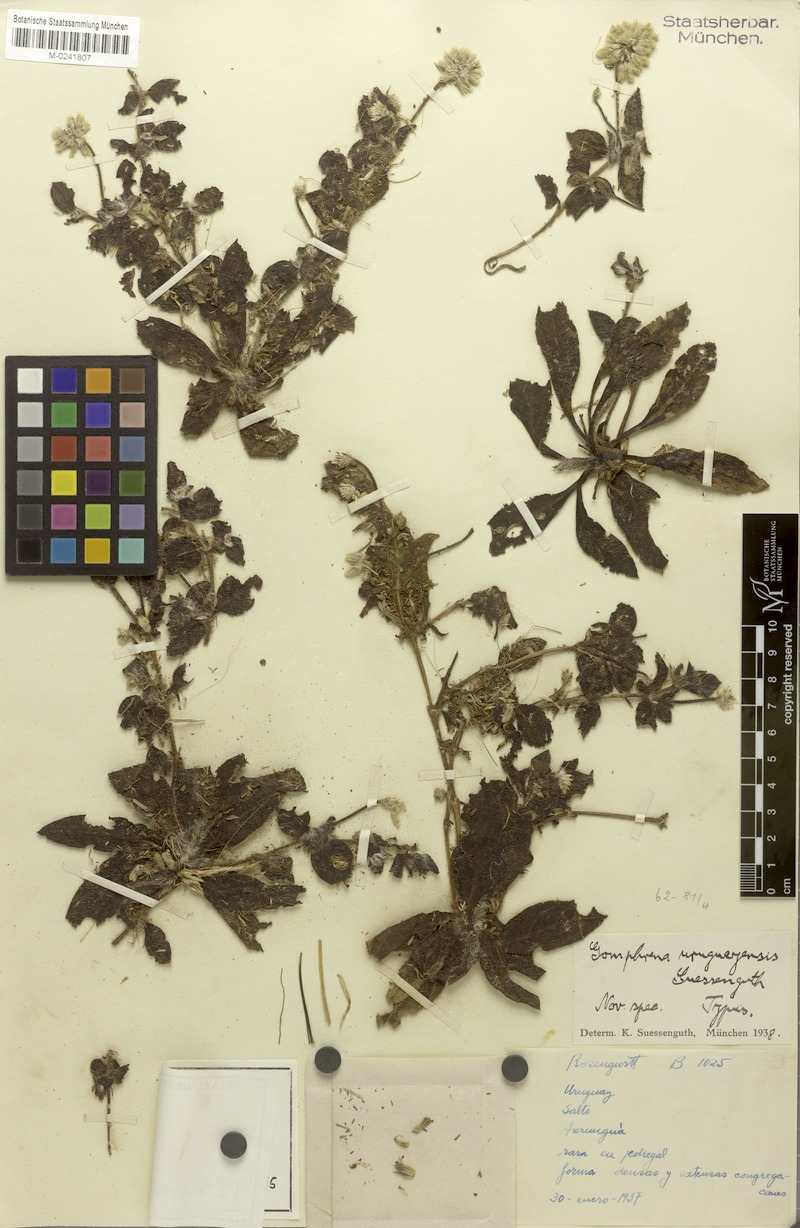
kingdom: Plantae
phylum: Tracheophyta
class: Magnoliopsida
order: Caryophyllales
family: Amaranthaceae
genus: Gomphrena
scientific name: Gomphrena uruguayensis
